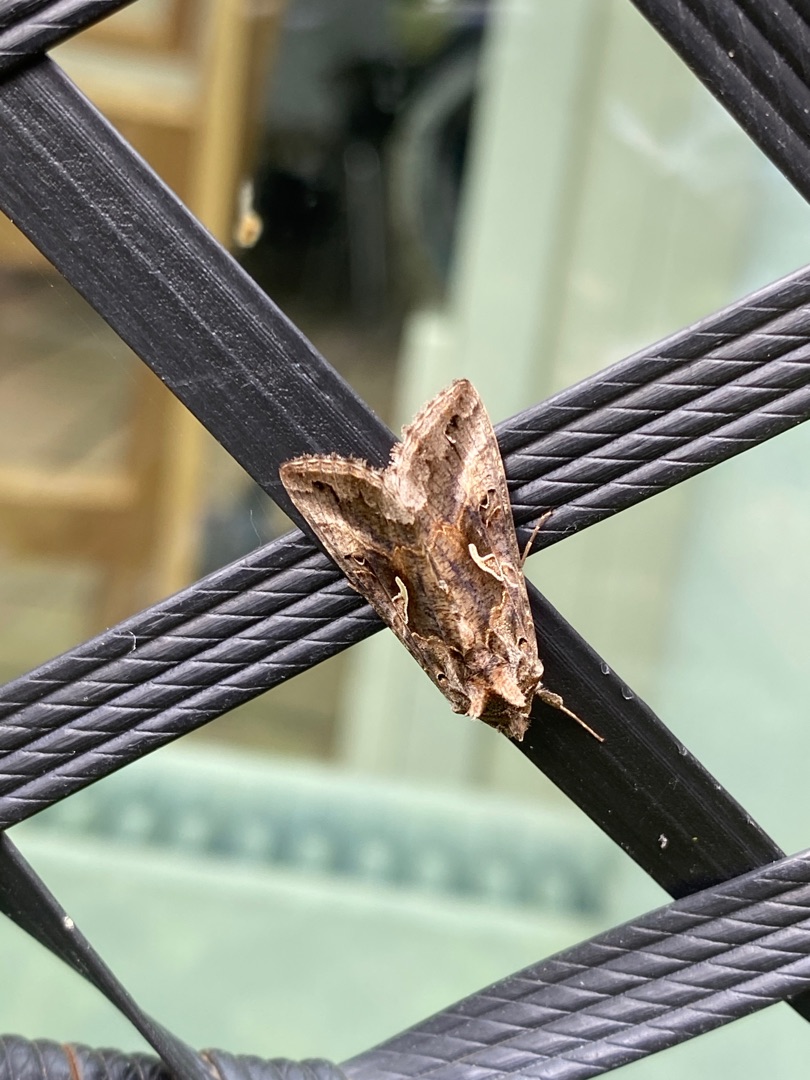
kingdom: Animalia
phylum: Arthropoda
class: Insecta
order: Lepidoptera
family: Noctuidae
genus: Autographa
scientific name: Autographa gamma
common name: Gammaugle
